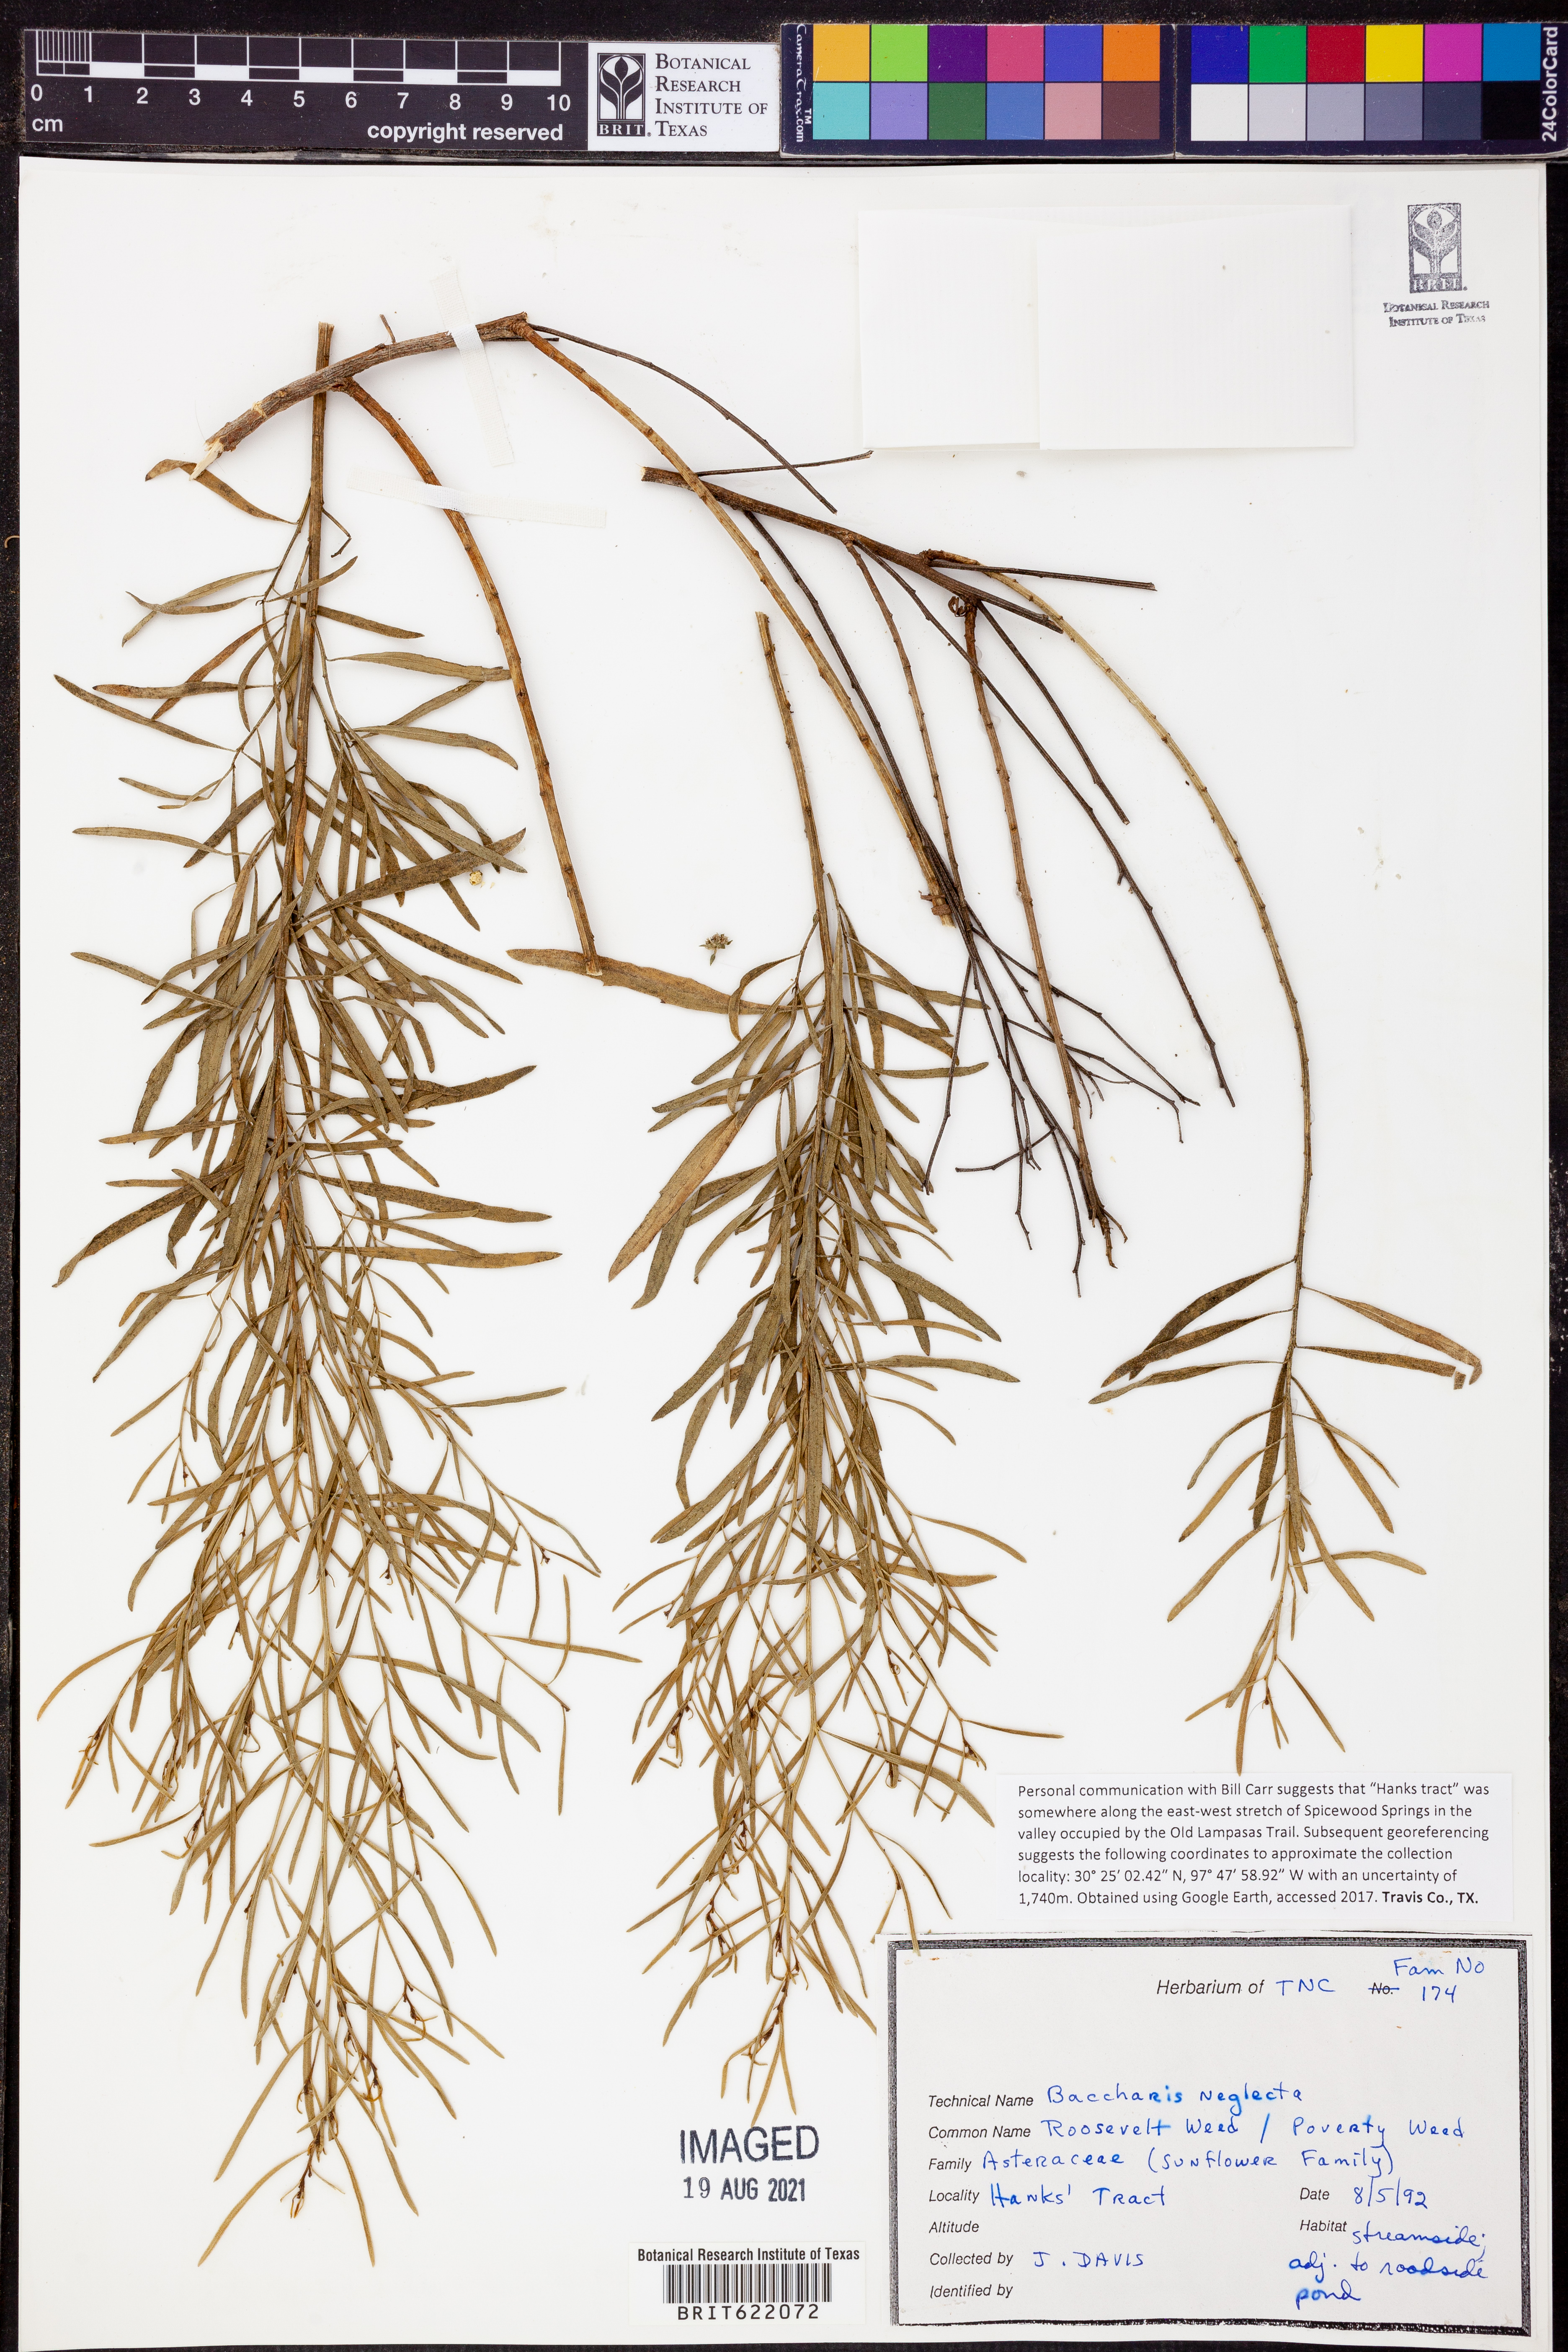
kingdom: Plantae
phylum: Tracheophyta
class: Magnoliopsida
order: Asterales
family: Asteraceae
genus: Baccharis
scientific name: Baccharis neglecta
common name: Roosevelt-weed
